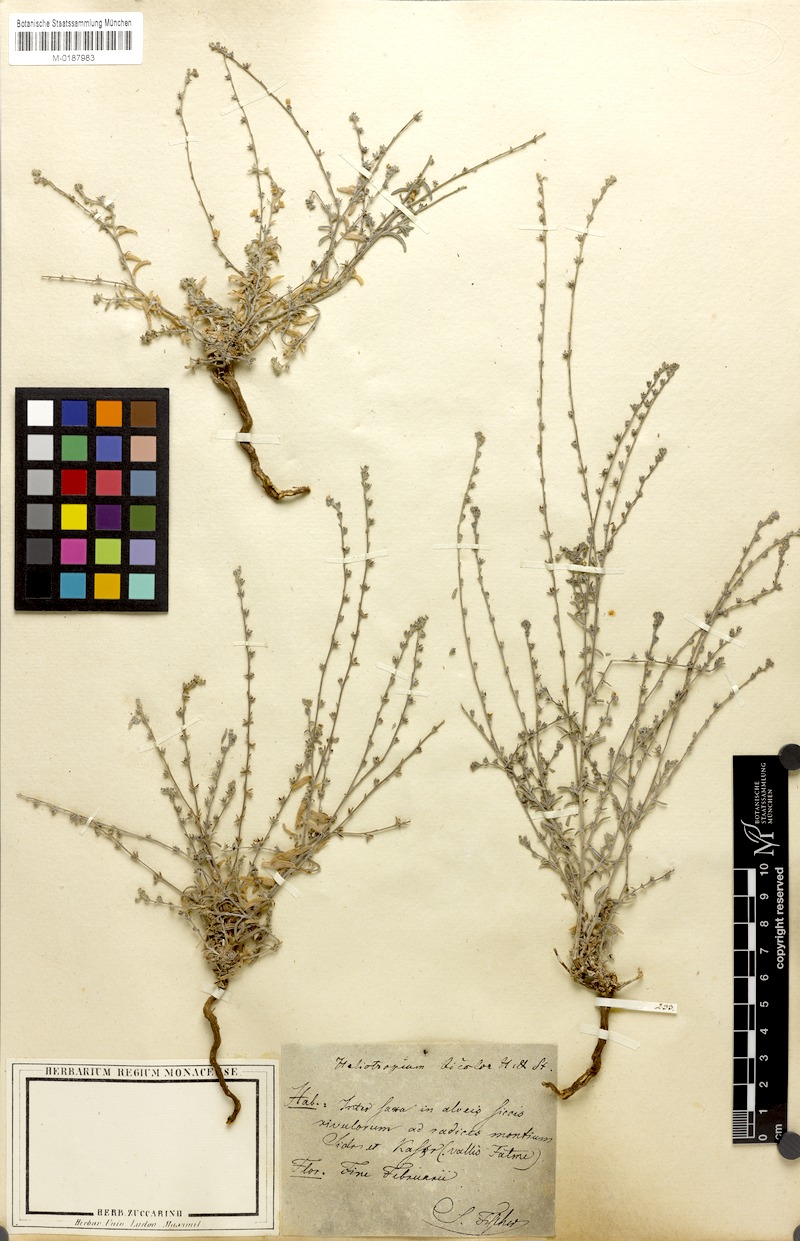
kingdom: Plantae
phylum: Tracheophyta
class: Magnoliopsida
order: Boraginales
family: Heliotropiaceae
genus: Euploca
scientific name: Euploca strigosa
